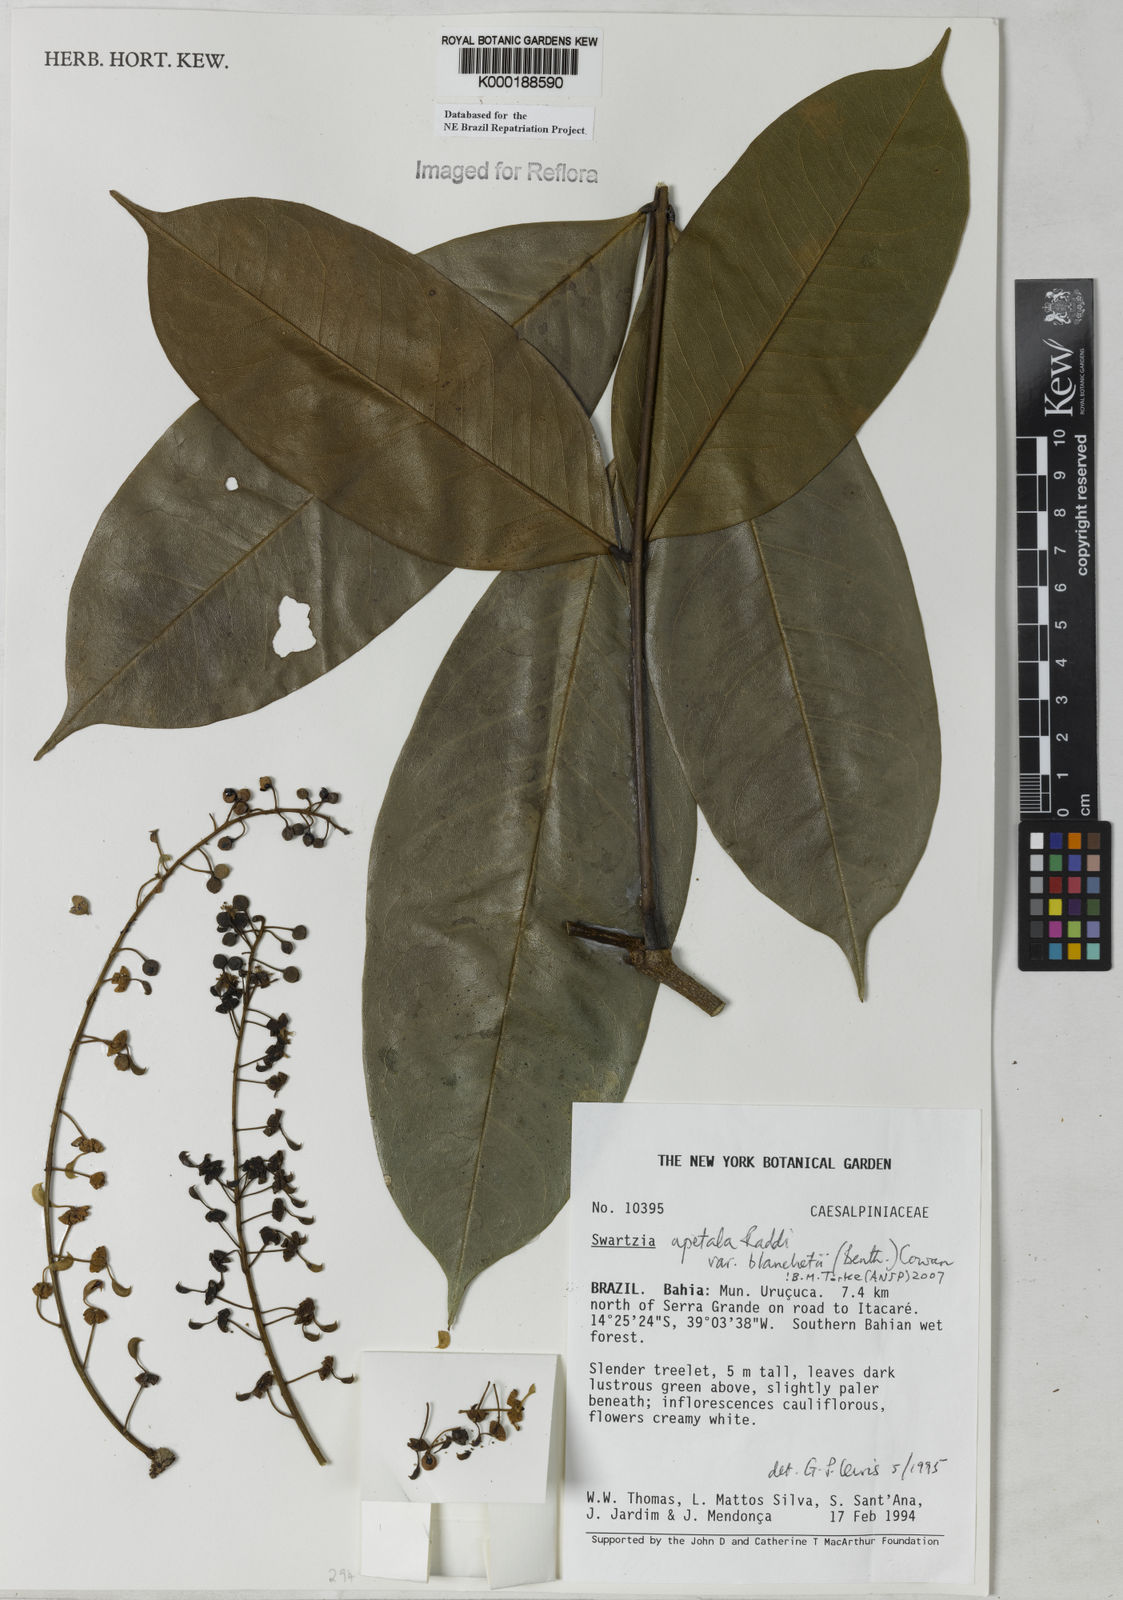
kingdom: Plantae
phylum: Tracheophyta
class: Magnoliopsida
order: Fabales
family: Fabaceae
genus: Swartzia
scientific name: Swartzia apetala
